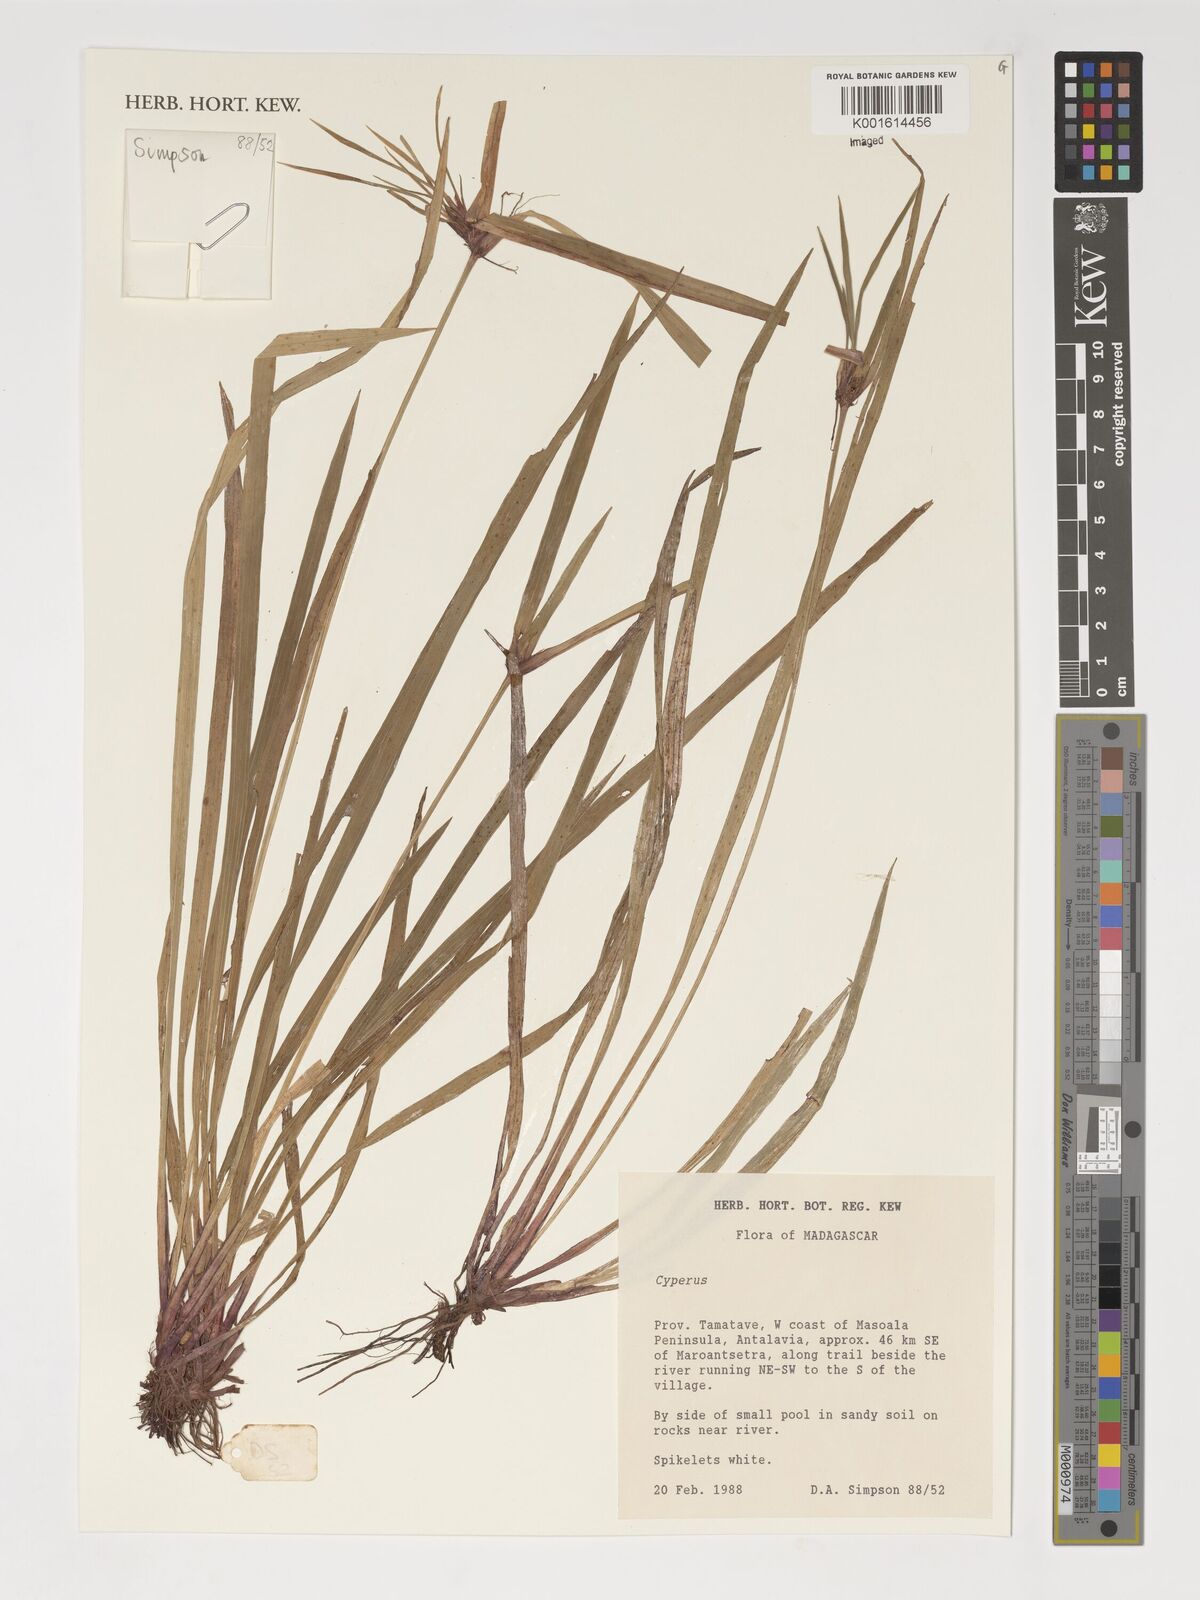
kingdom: Plantae
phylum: Tracheophyta
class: Liliopsida
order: Poales
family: Cyperaceae
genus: Cyperus
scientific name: Cyperus
